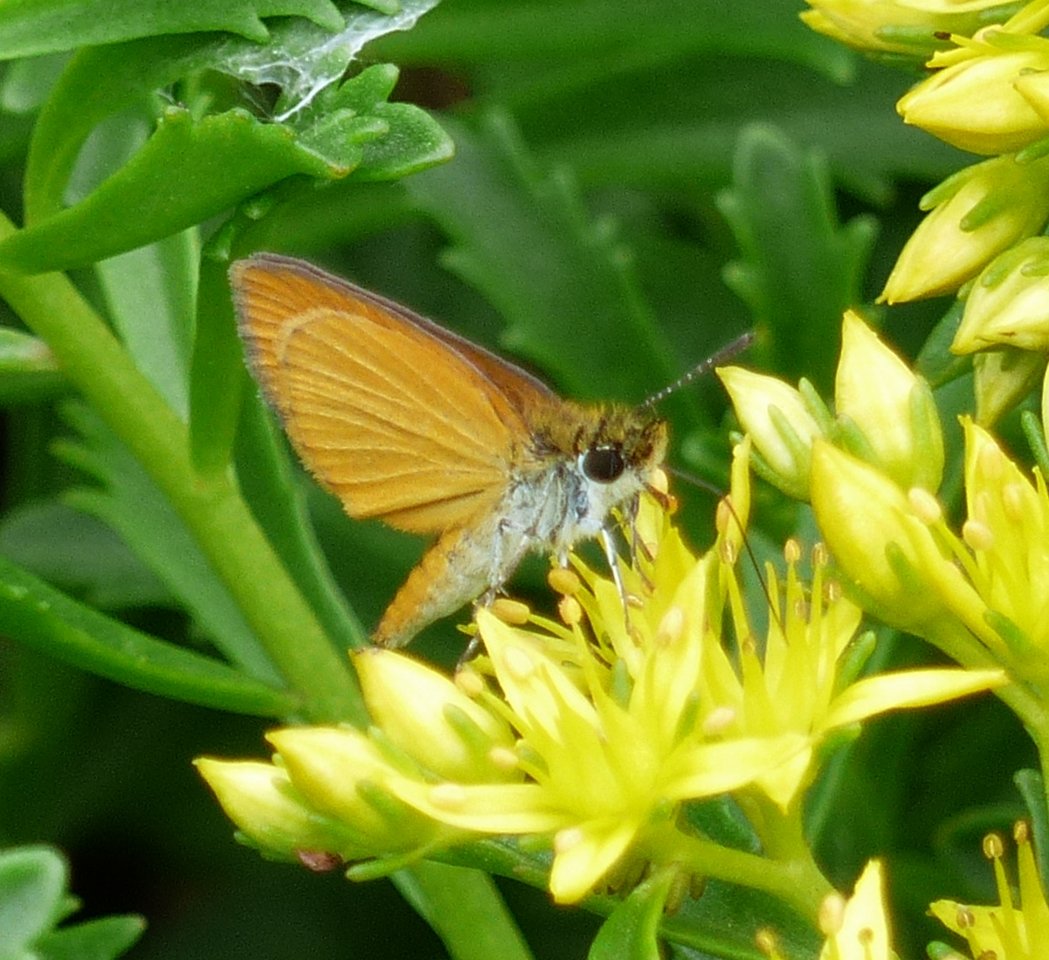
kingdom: Animalia
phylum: Arthropoda
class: Insecta
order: Lepidoptera
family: Hesperiidae
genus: Ancyloxypha
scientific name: Ancyloxypha numitor
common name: Least Skipper
